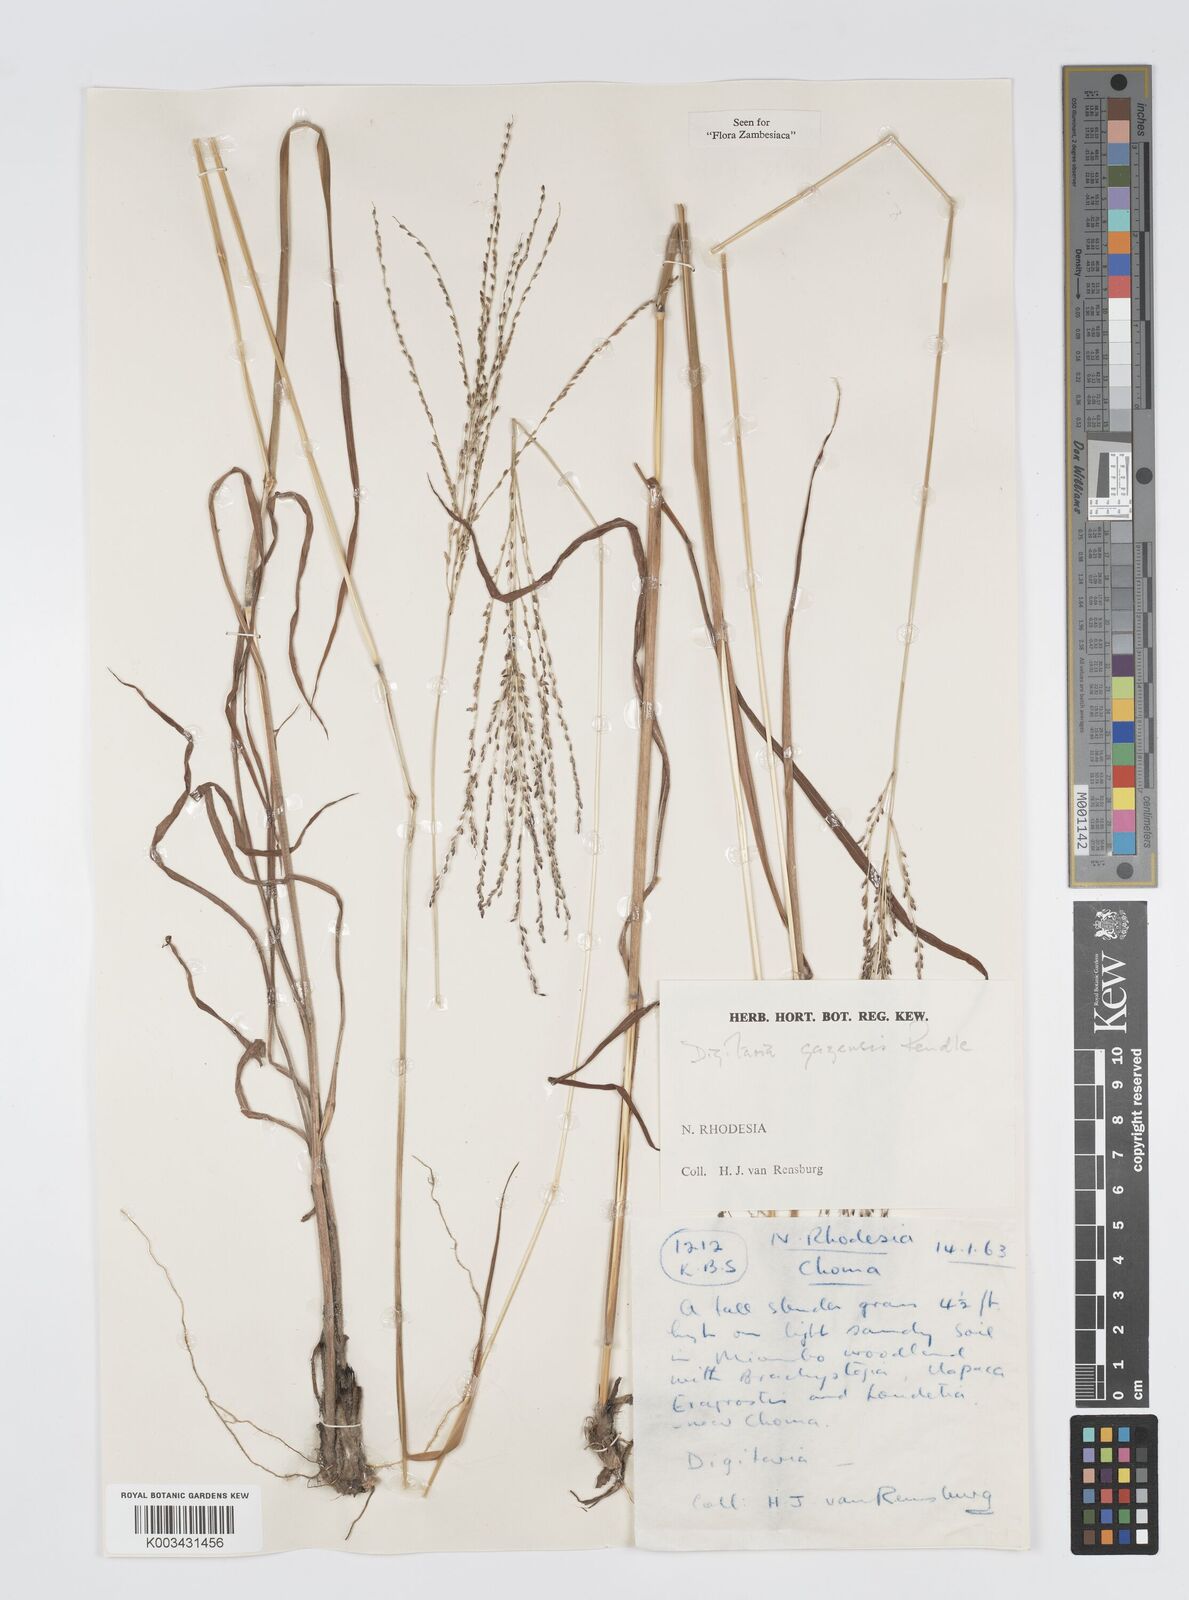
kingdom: Plantae
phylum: Tracheophyta
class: Liliopsida
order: Poales
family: Poaceae
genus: Digitaria
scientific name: Digitaria gazensis
